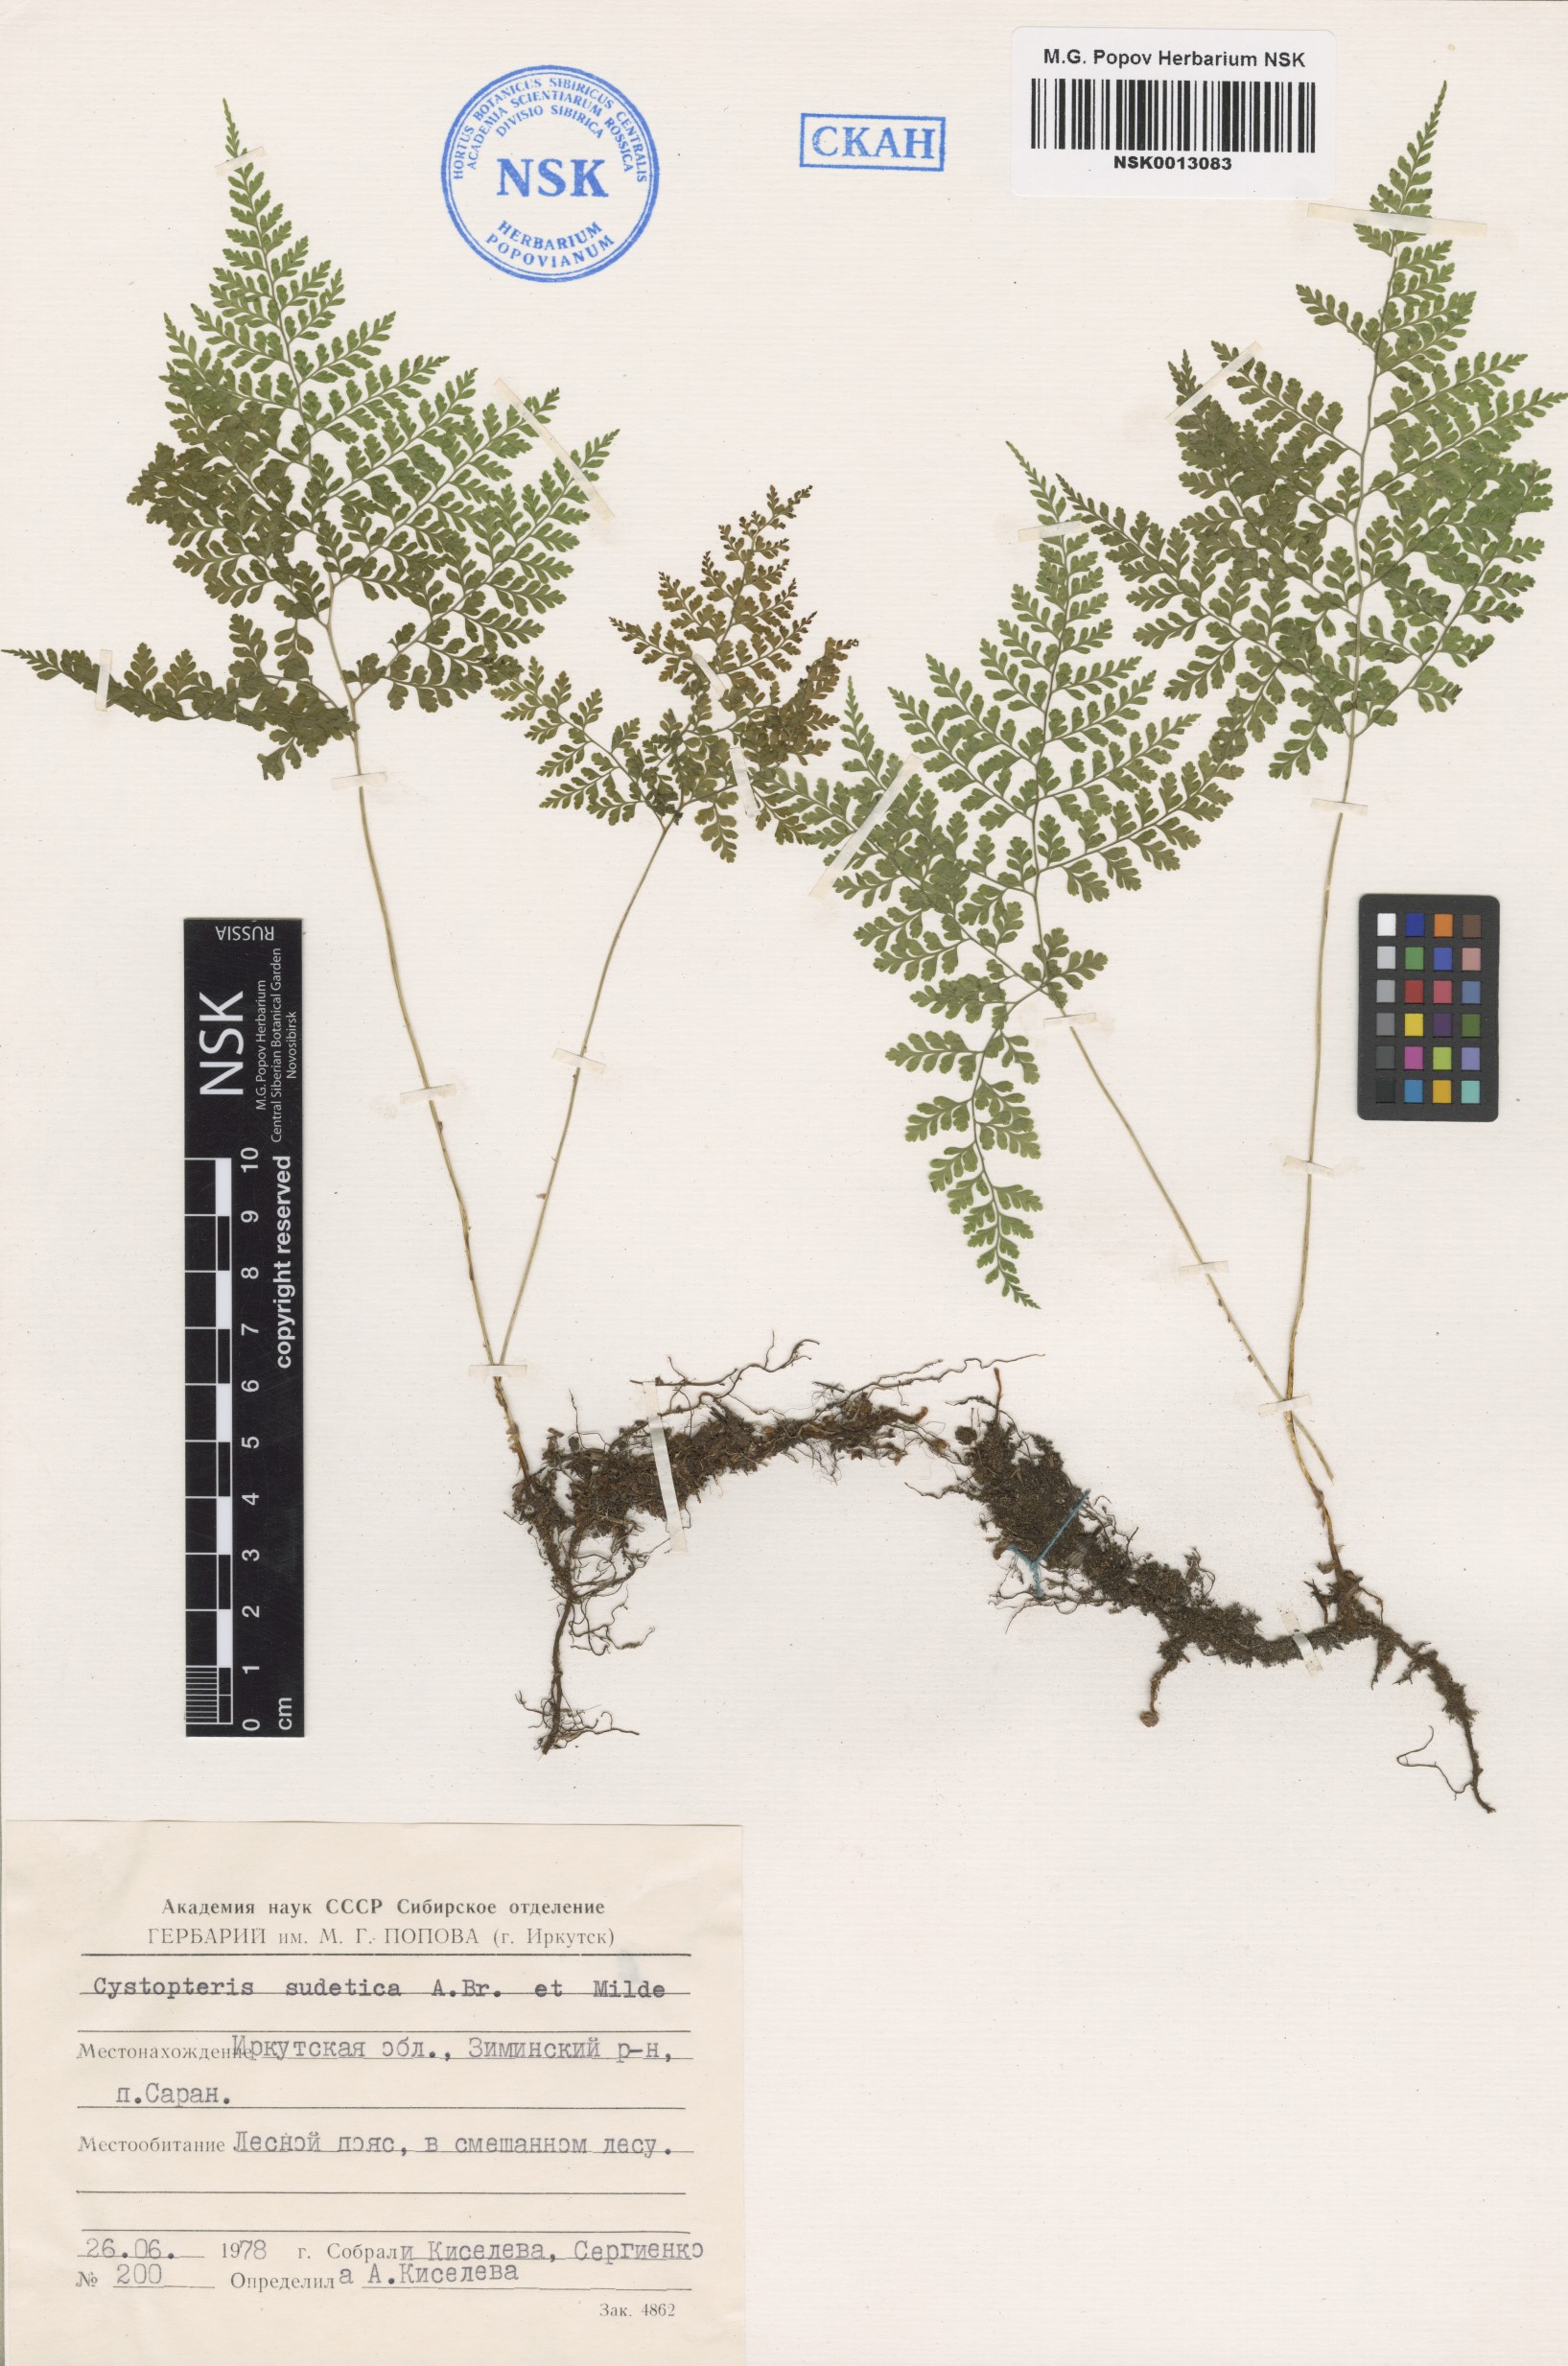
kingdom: Plantae
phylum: Tracheophyta
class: Polypodiopsida
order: Polypodiales
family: Cystopteridaceae
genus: Cystopteris
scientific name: Cystopteris sudetica
